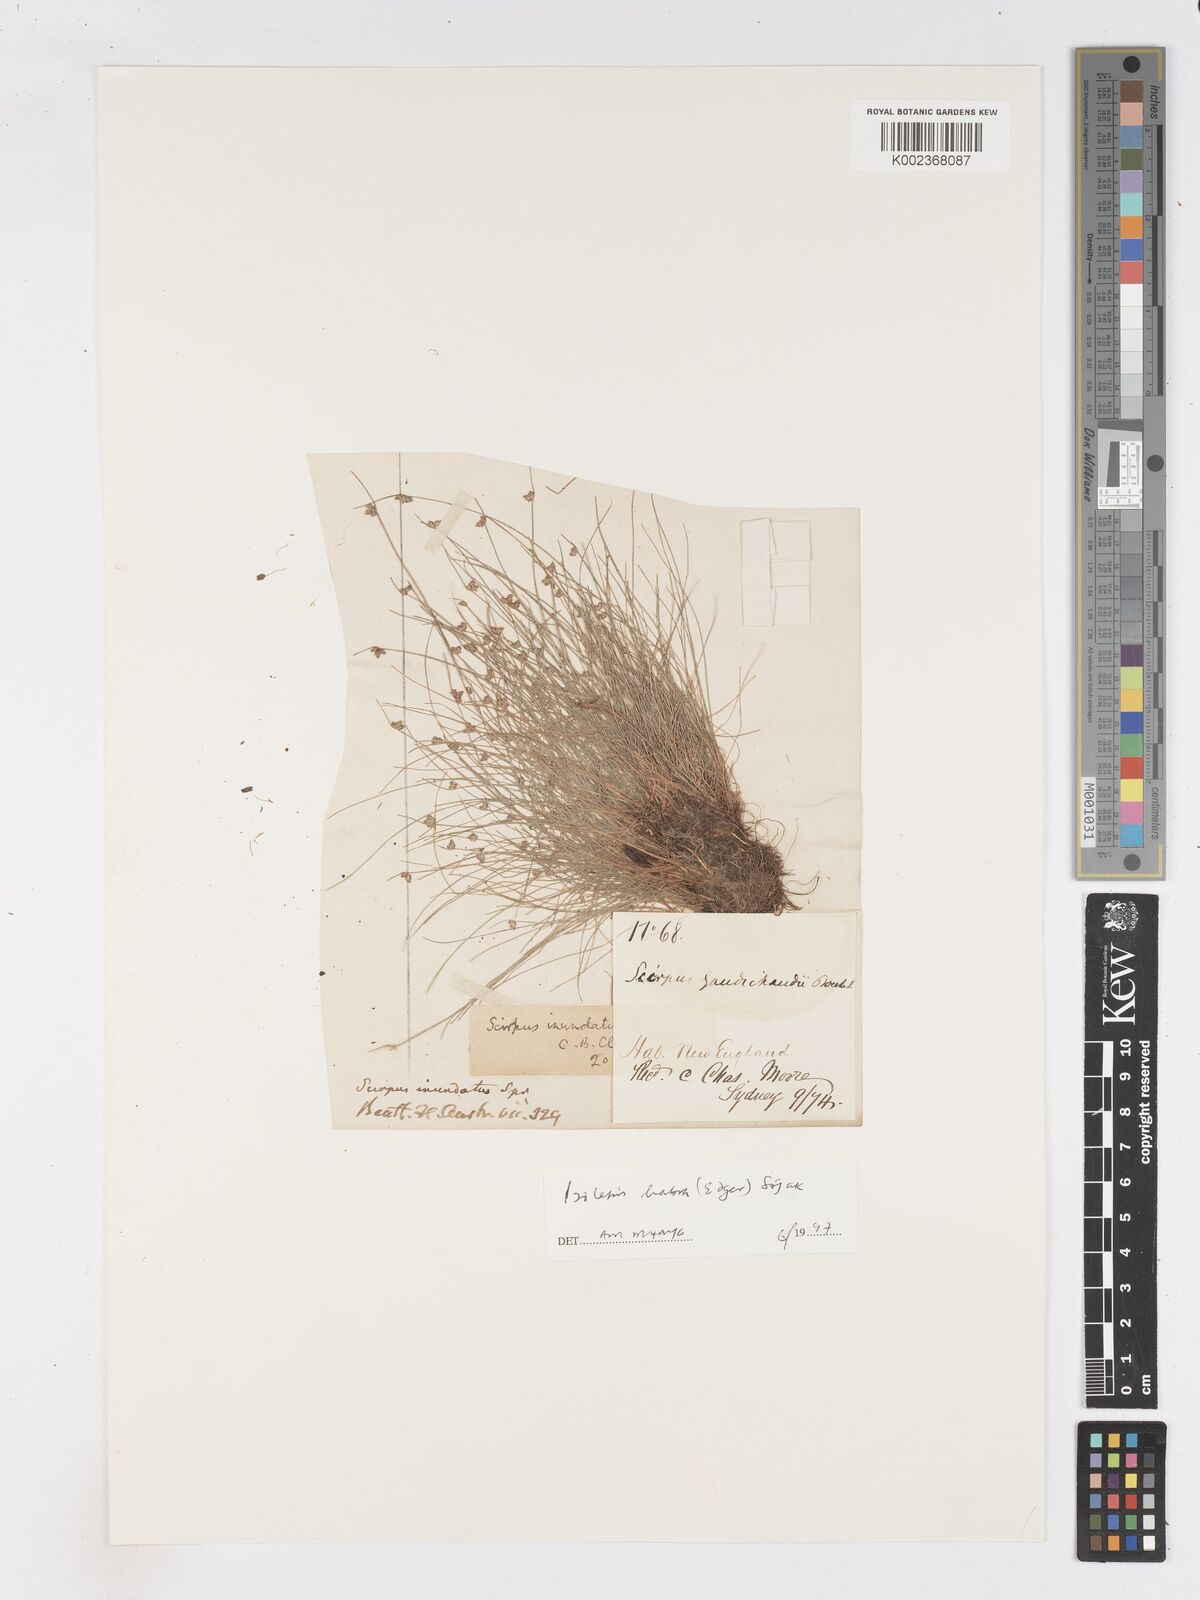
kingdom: Plantae
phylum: Tracheophyta
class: Liliopsida
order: Poales
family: Cyperaceae
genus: Isolepis
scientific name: Isolepis habra
